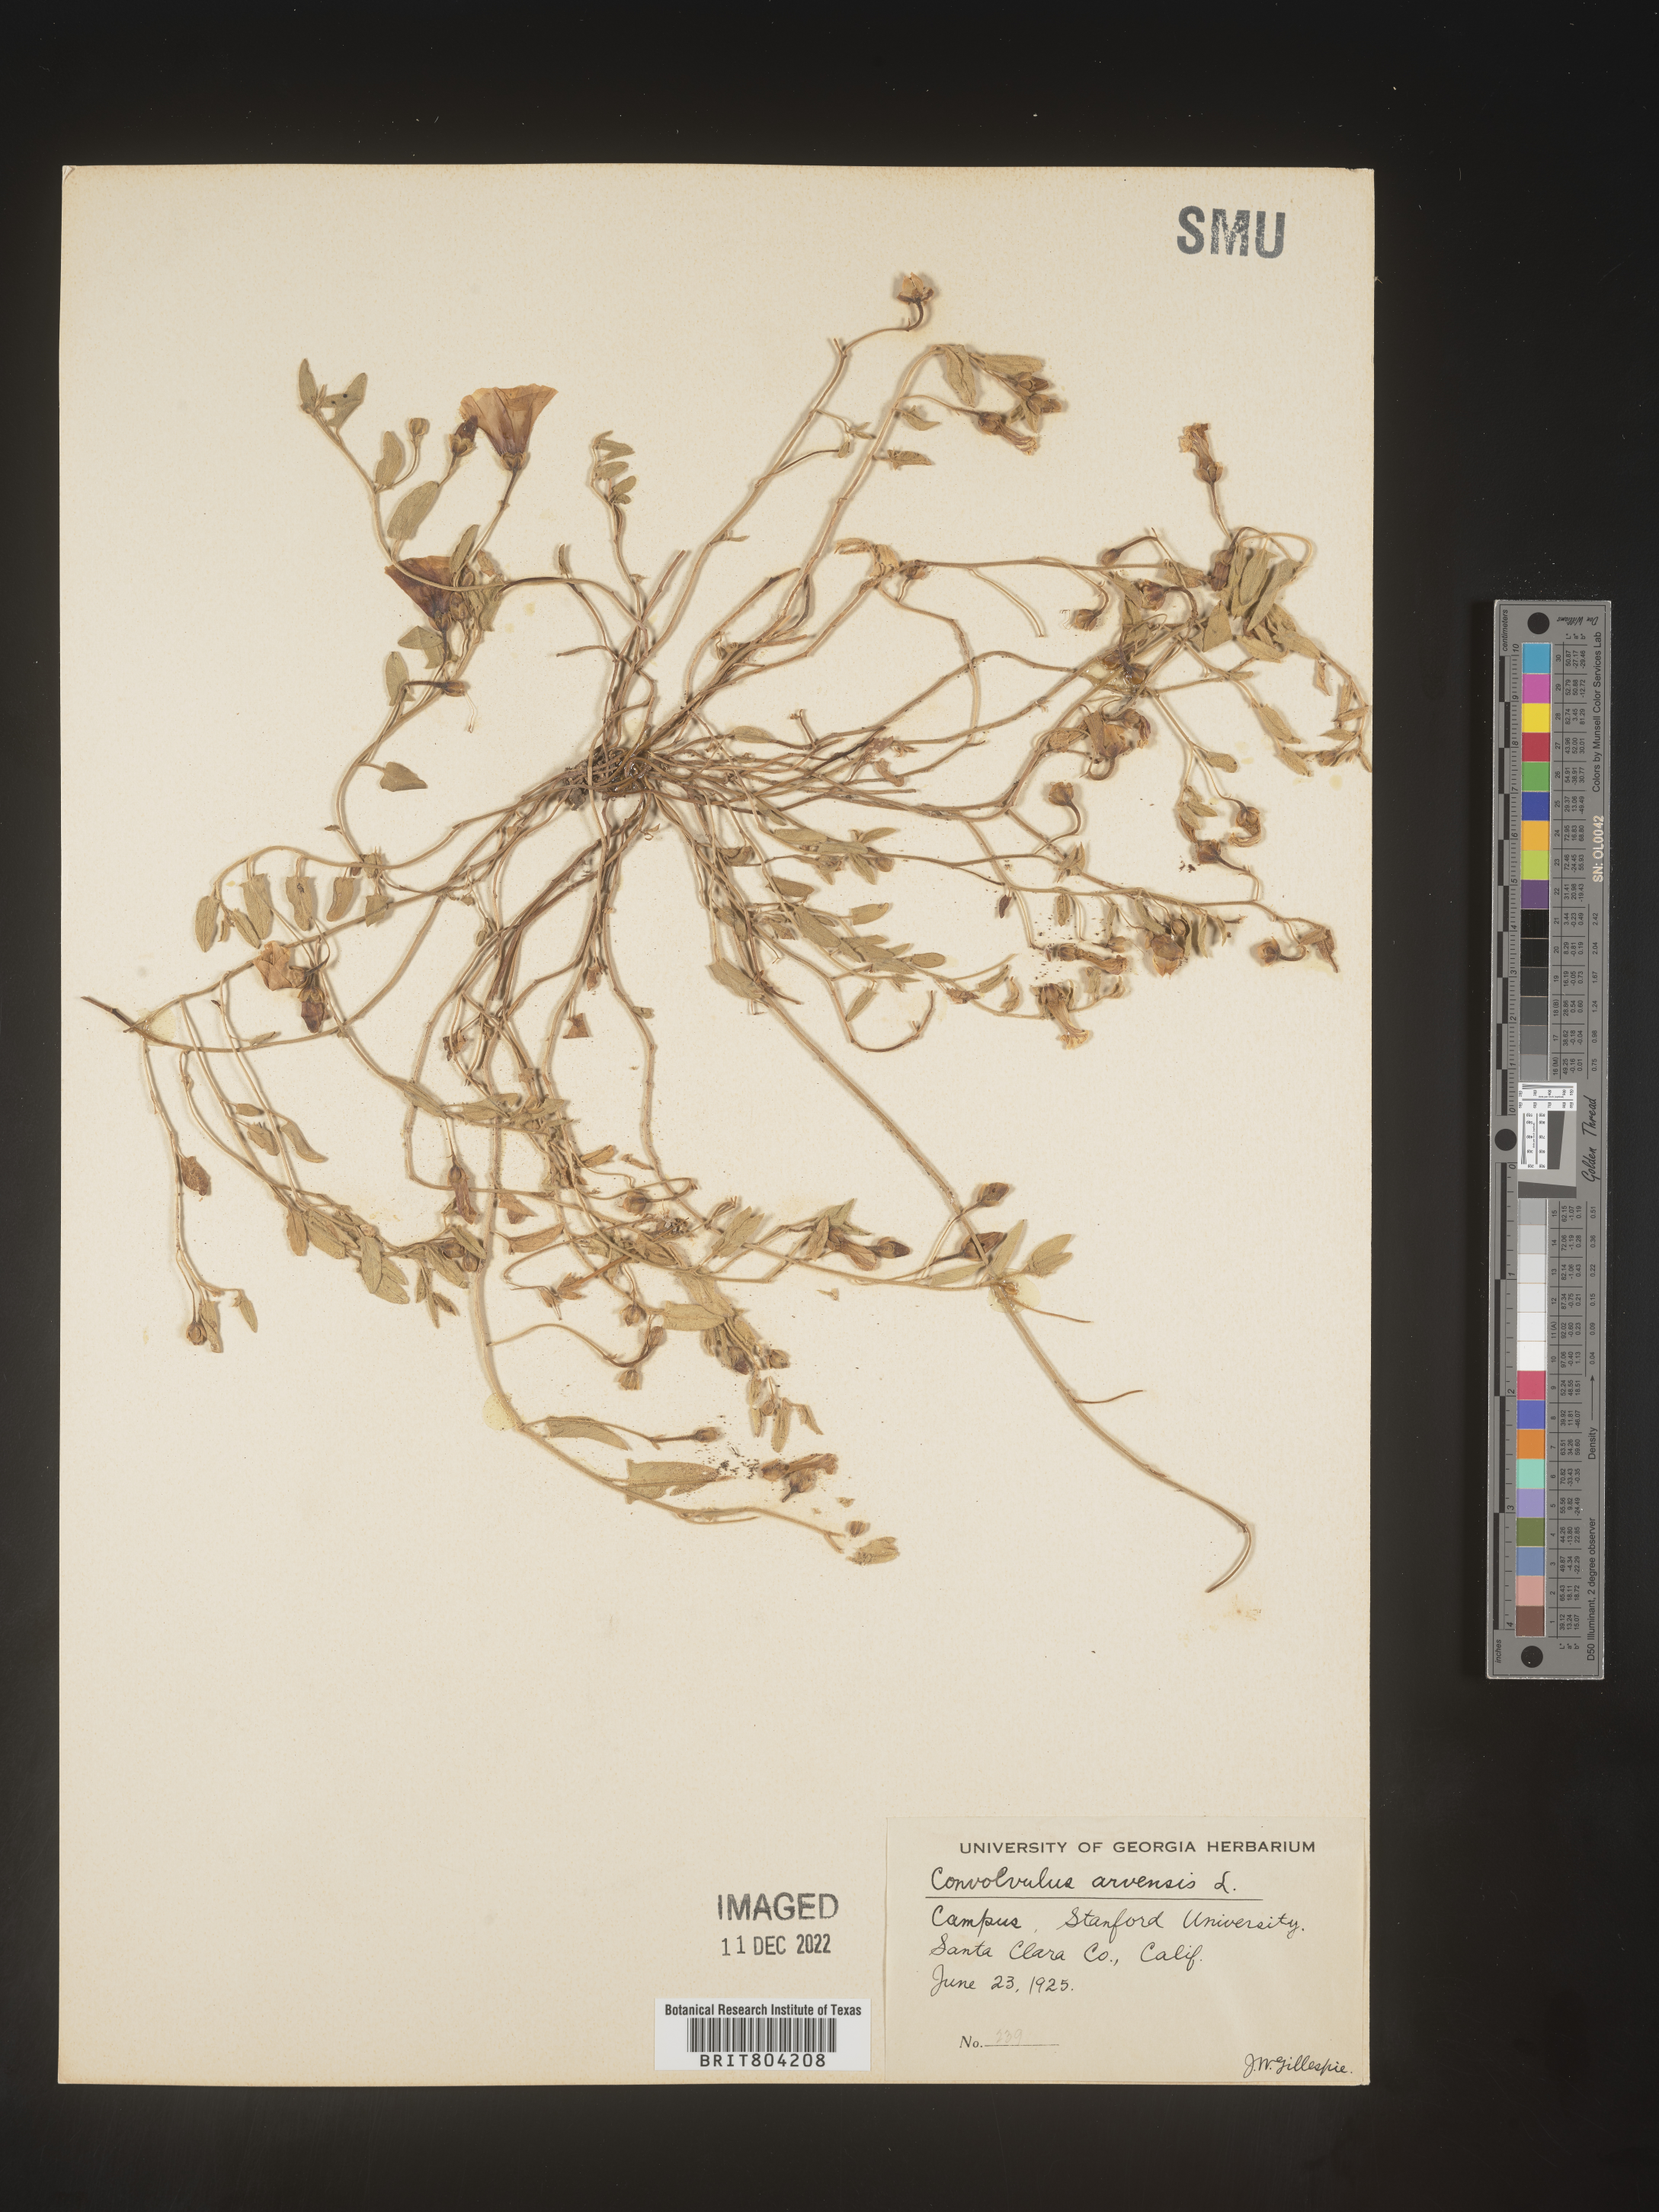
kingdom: Plantae
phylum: Tracheophyta
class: Magnoliopsida
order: Solanales
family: Convolvulaceae
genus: Convolvulus
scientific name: Convolvulus arvensis
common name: Field bindweed
